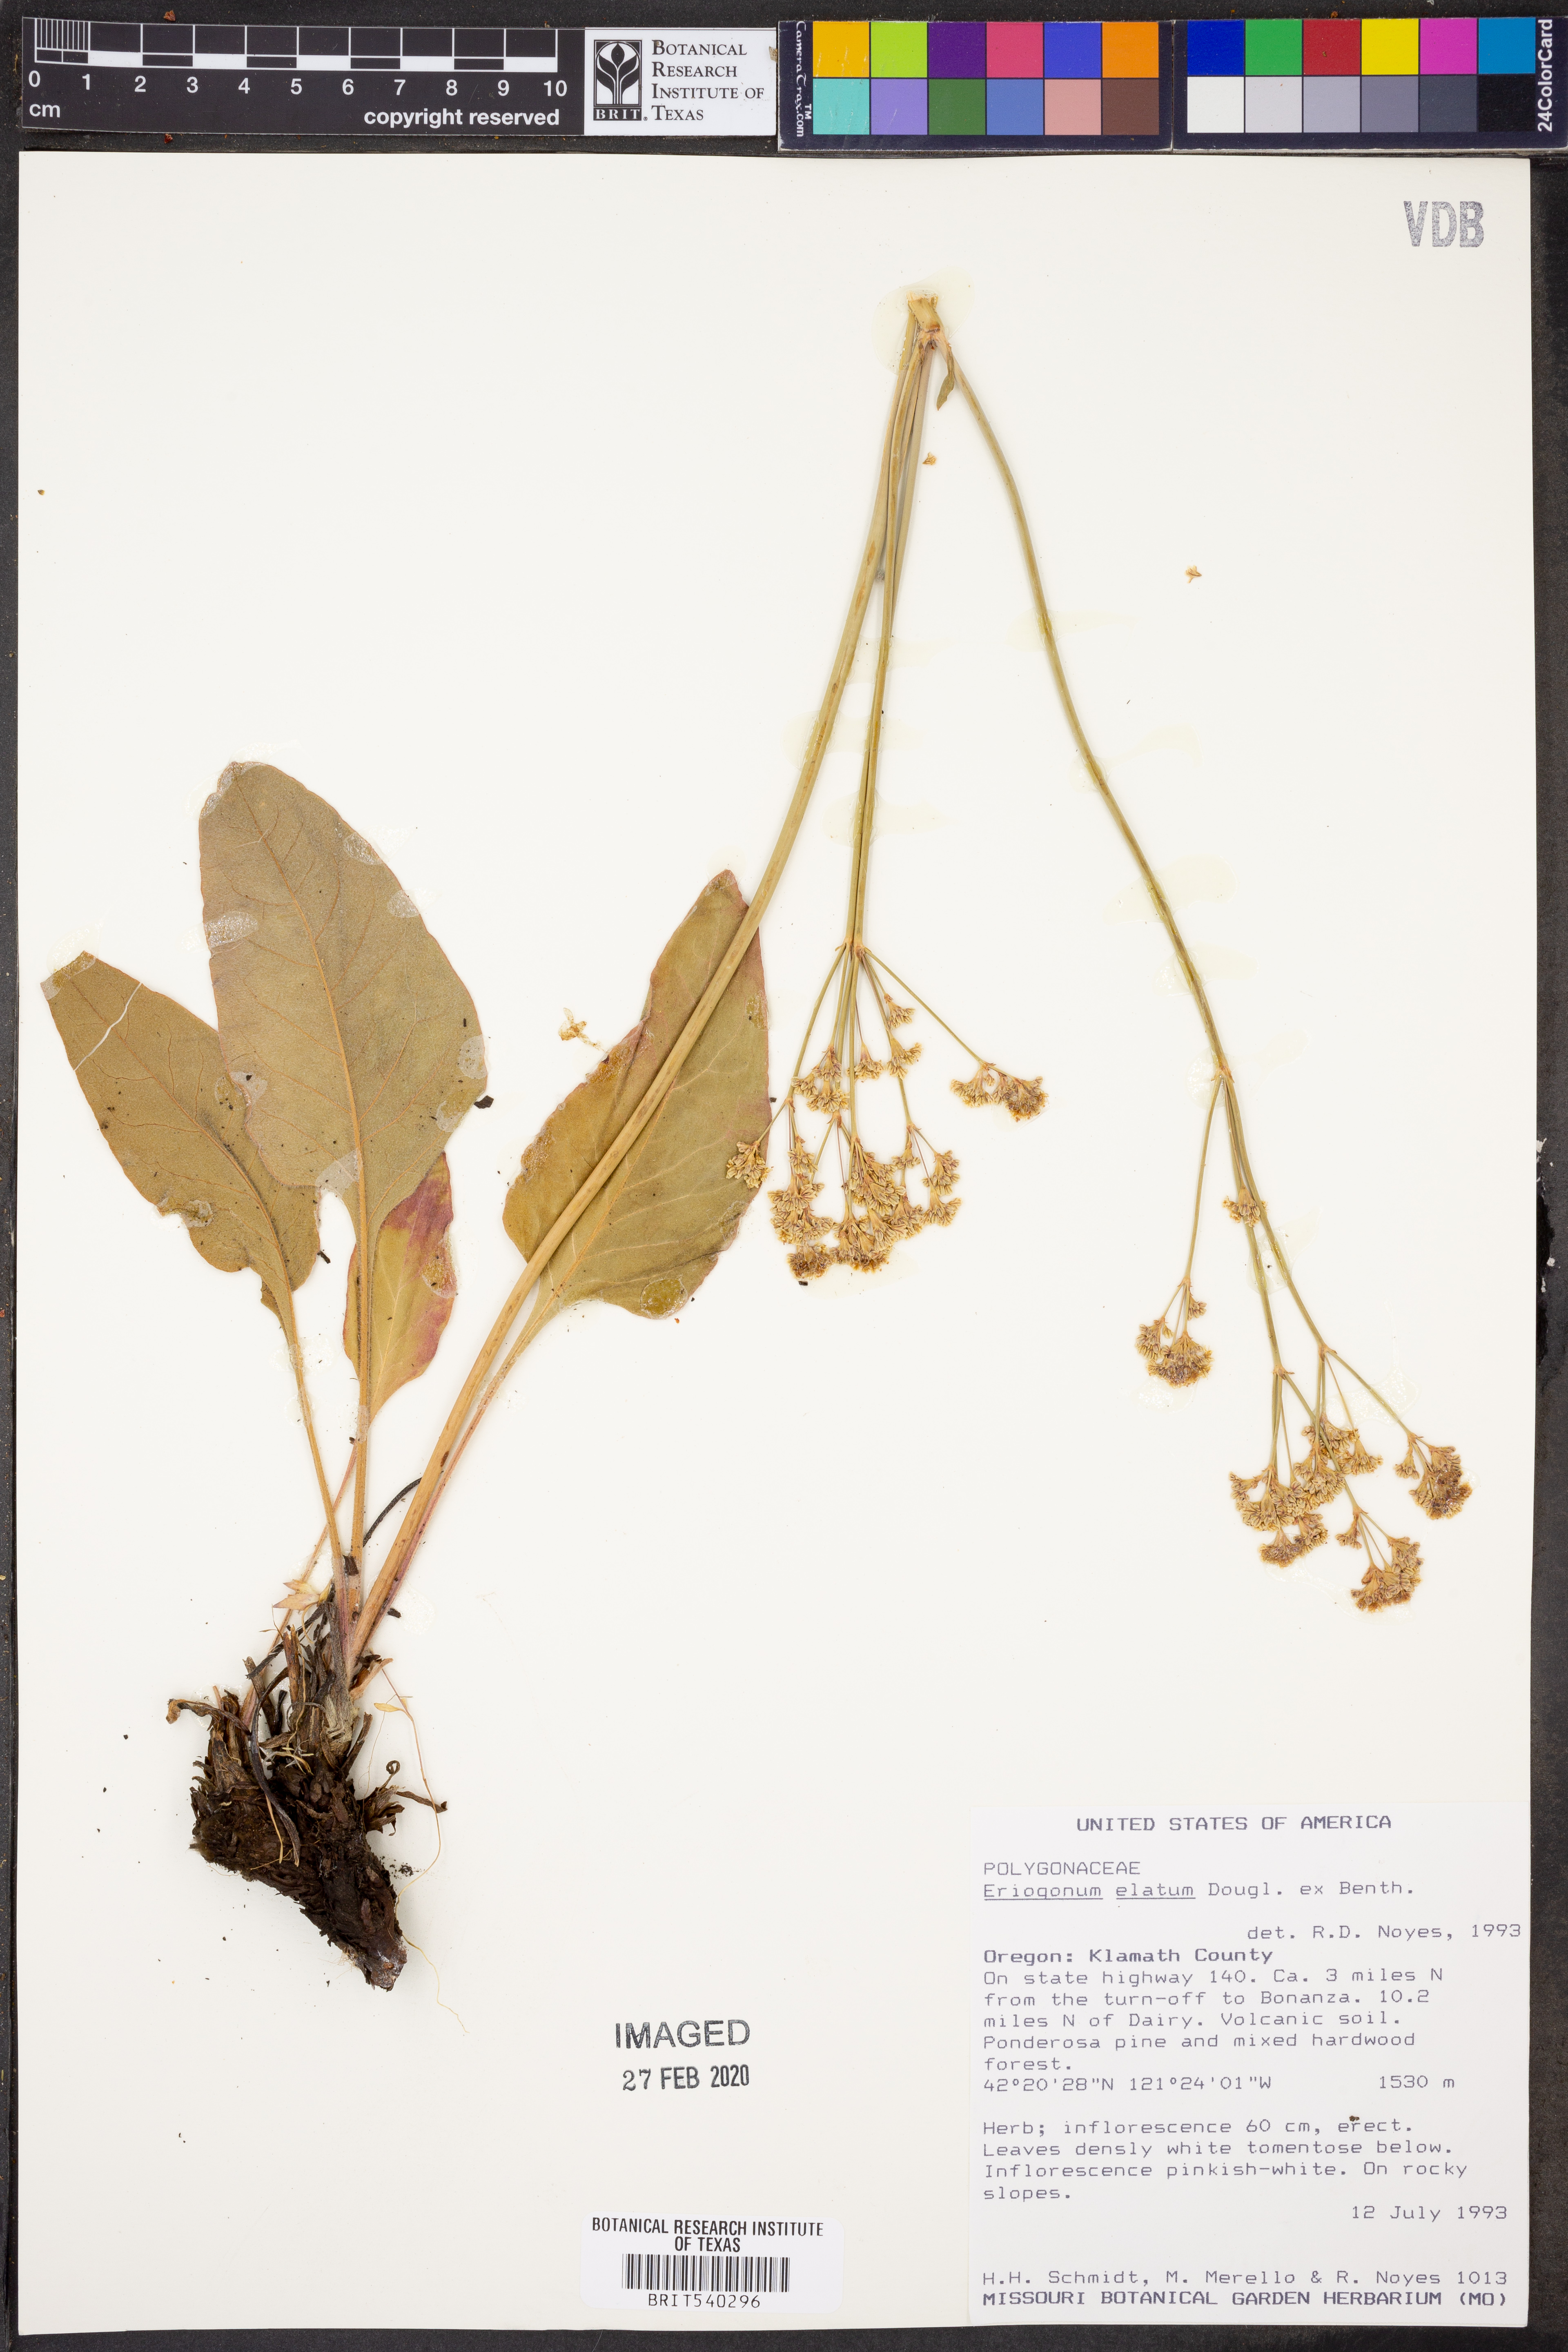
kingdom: Plantae
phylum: Tracheophyta
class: Magnoliopsida
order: Caryophyllales
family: Polygonaceae
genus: Eriogonum
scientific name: Eriogonum elatum
